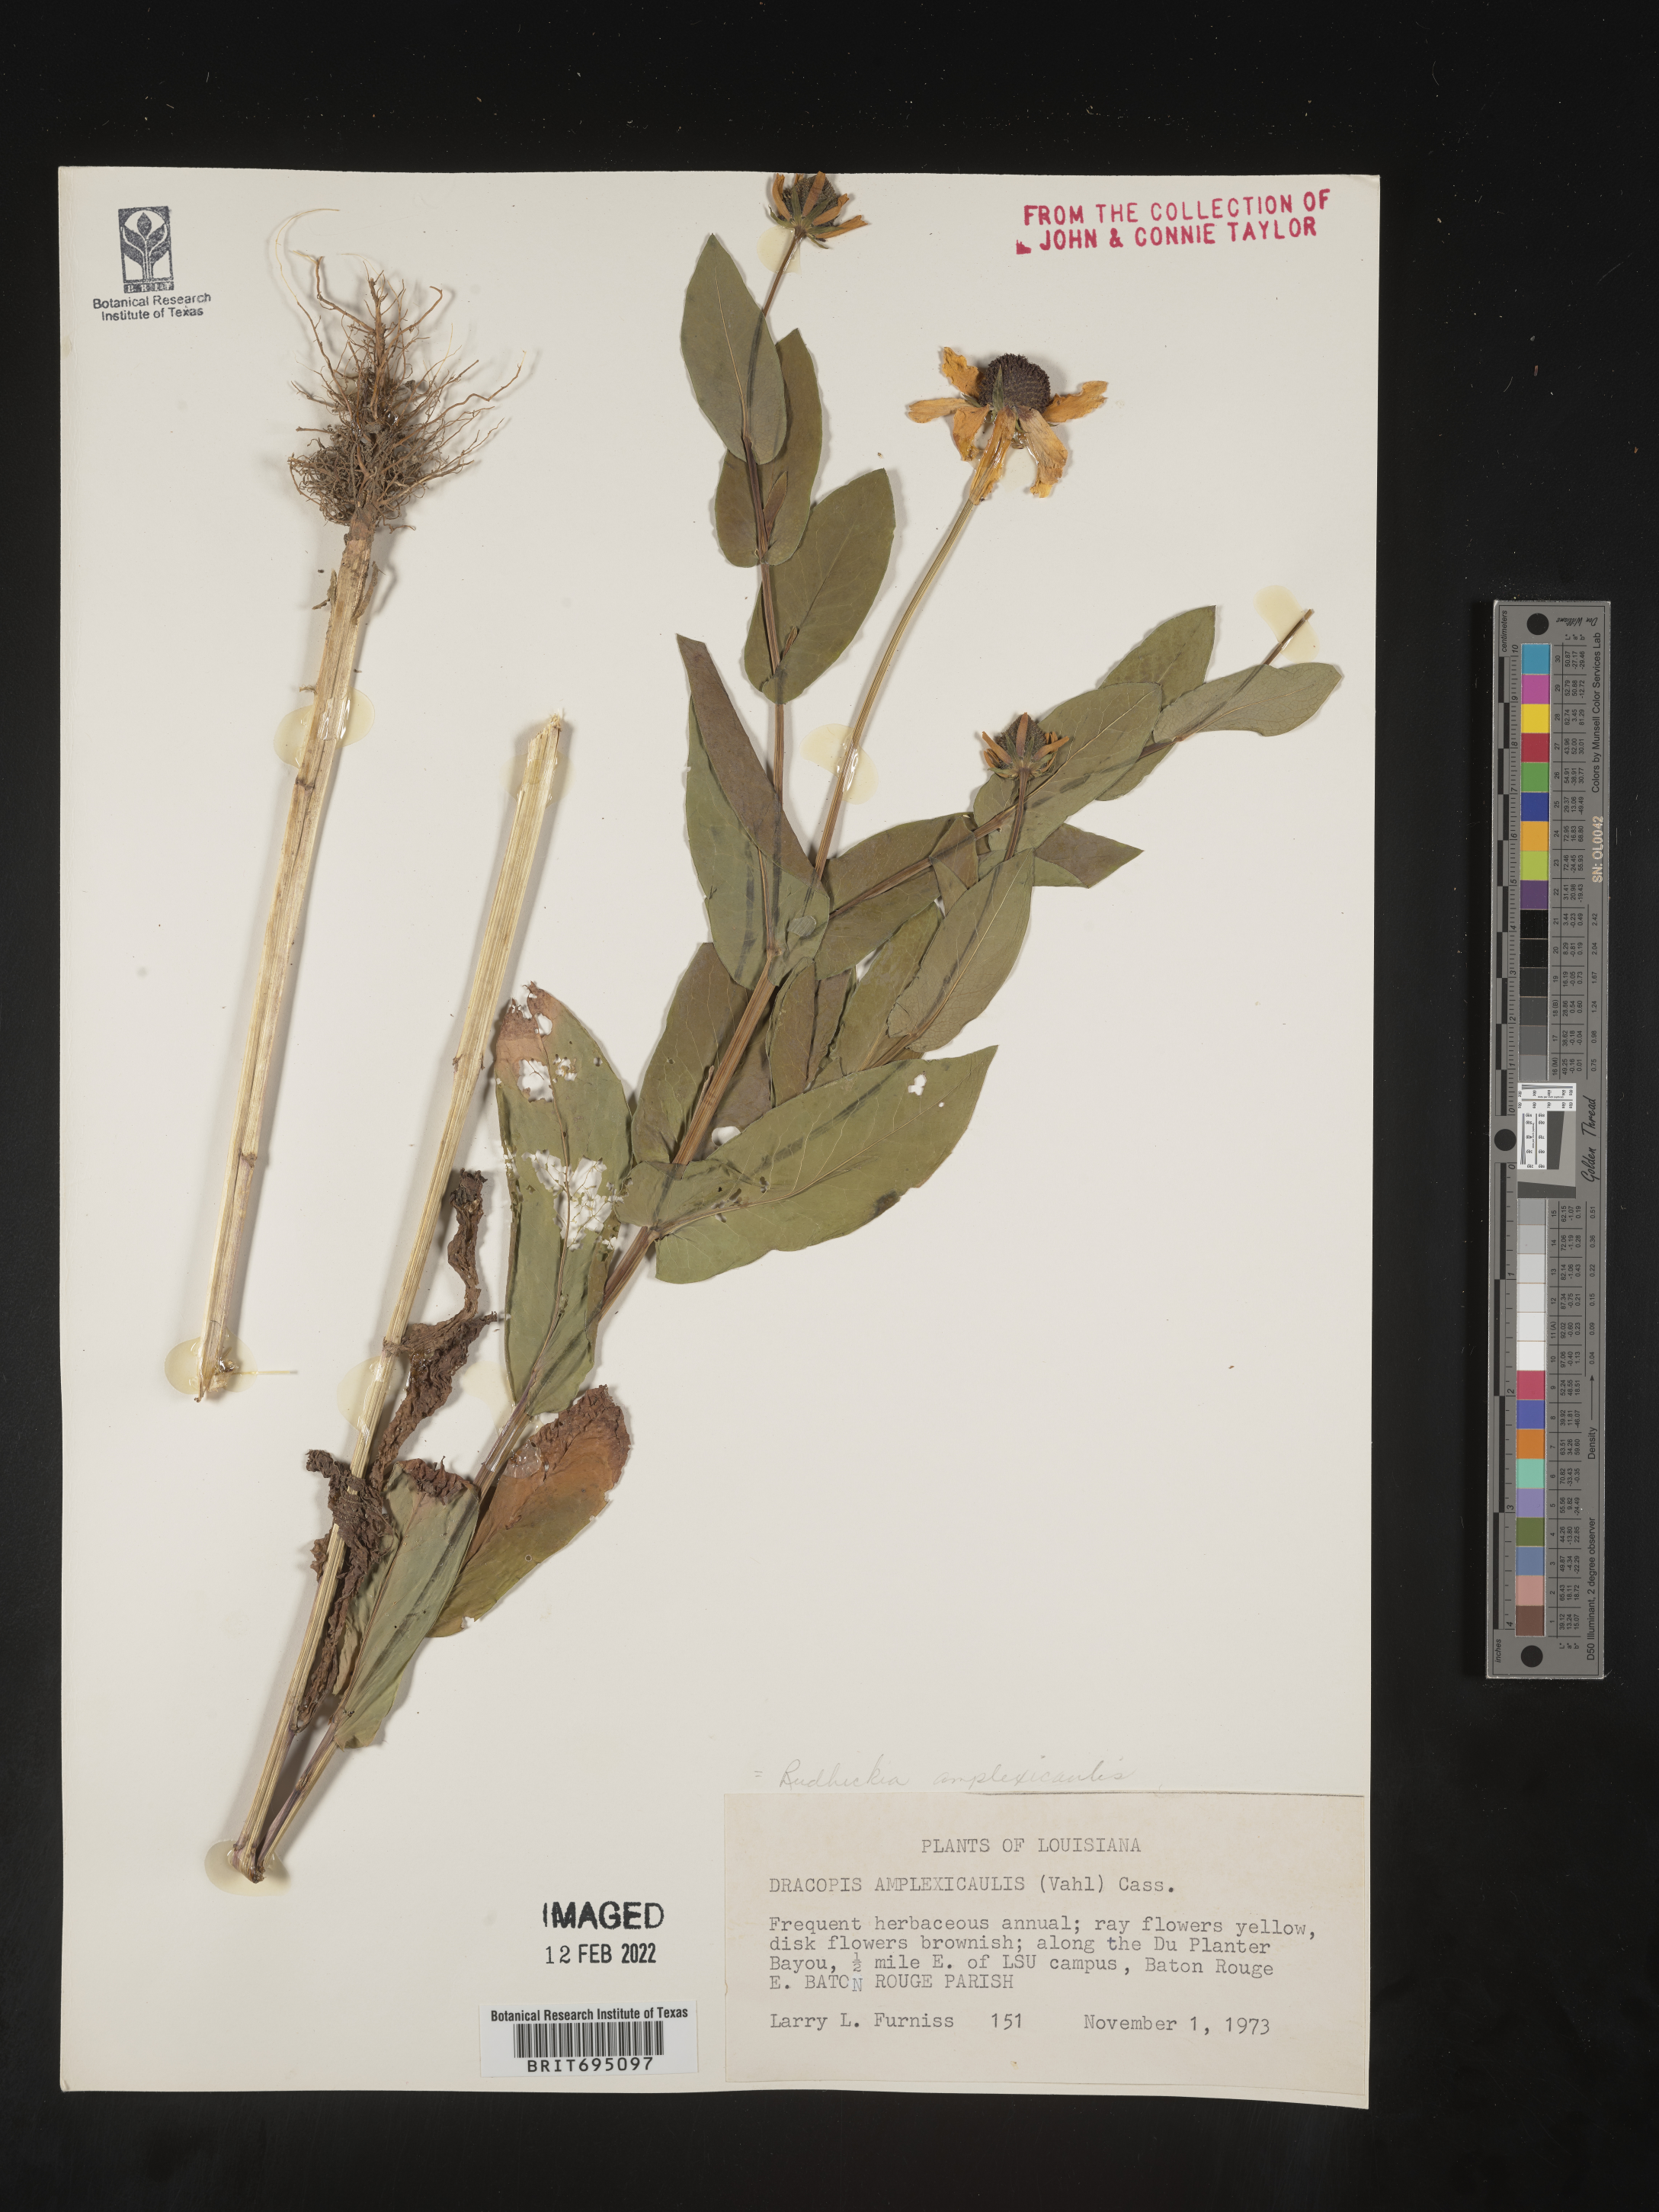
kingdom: Plantae
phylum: Tracheophyta
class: Magnoliopsida
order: Asterales
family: Asteraceae
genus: Rudbeckia
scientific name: Rudbeckia amplexicaulis
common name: Clasping-leaf coneflower
